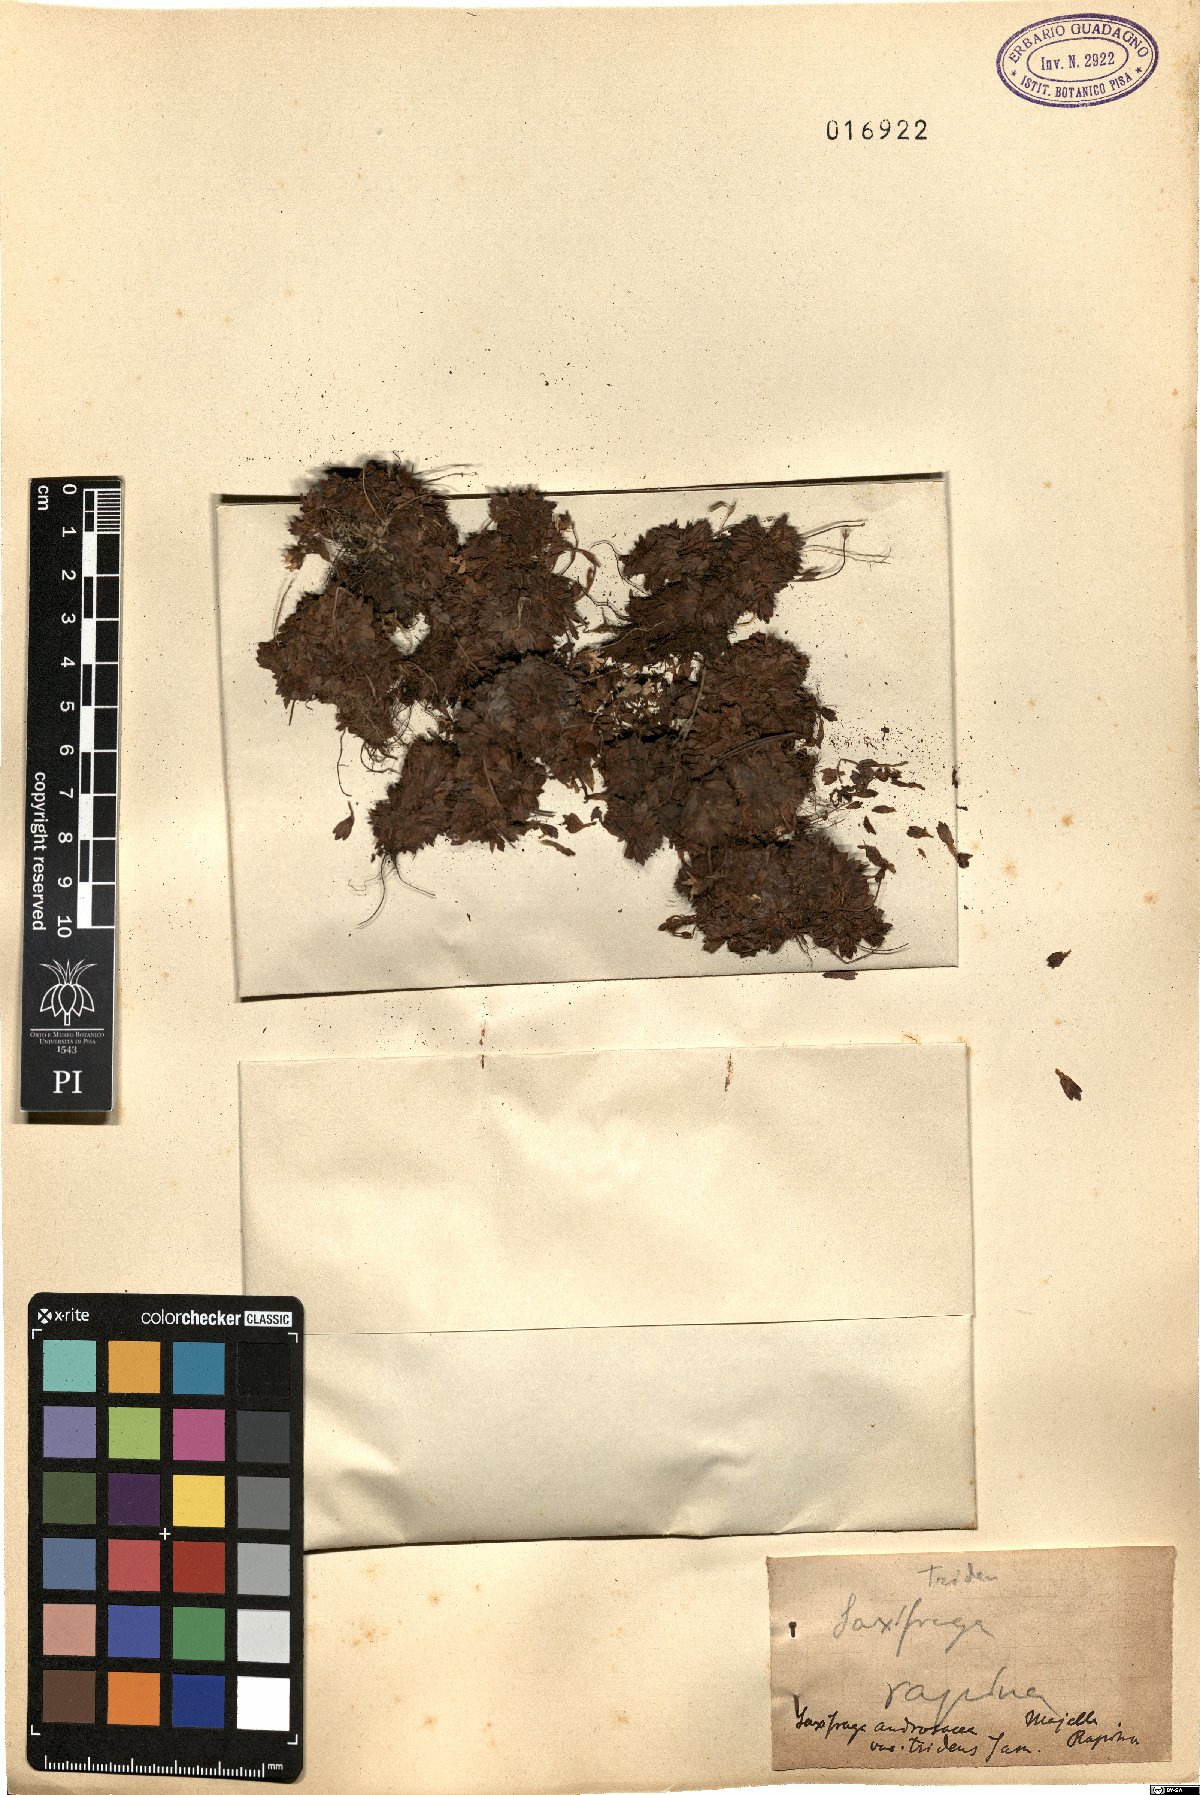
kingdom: Plantae
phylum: Tracheophyta
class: Magnoliopsida
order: Saxifragales
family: Saxifragaceae
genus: Saxifraga
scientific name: Saxifraga italica
